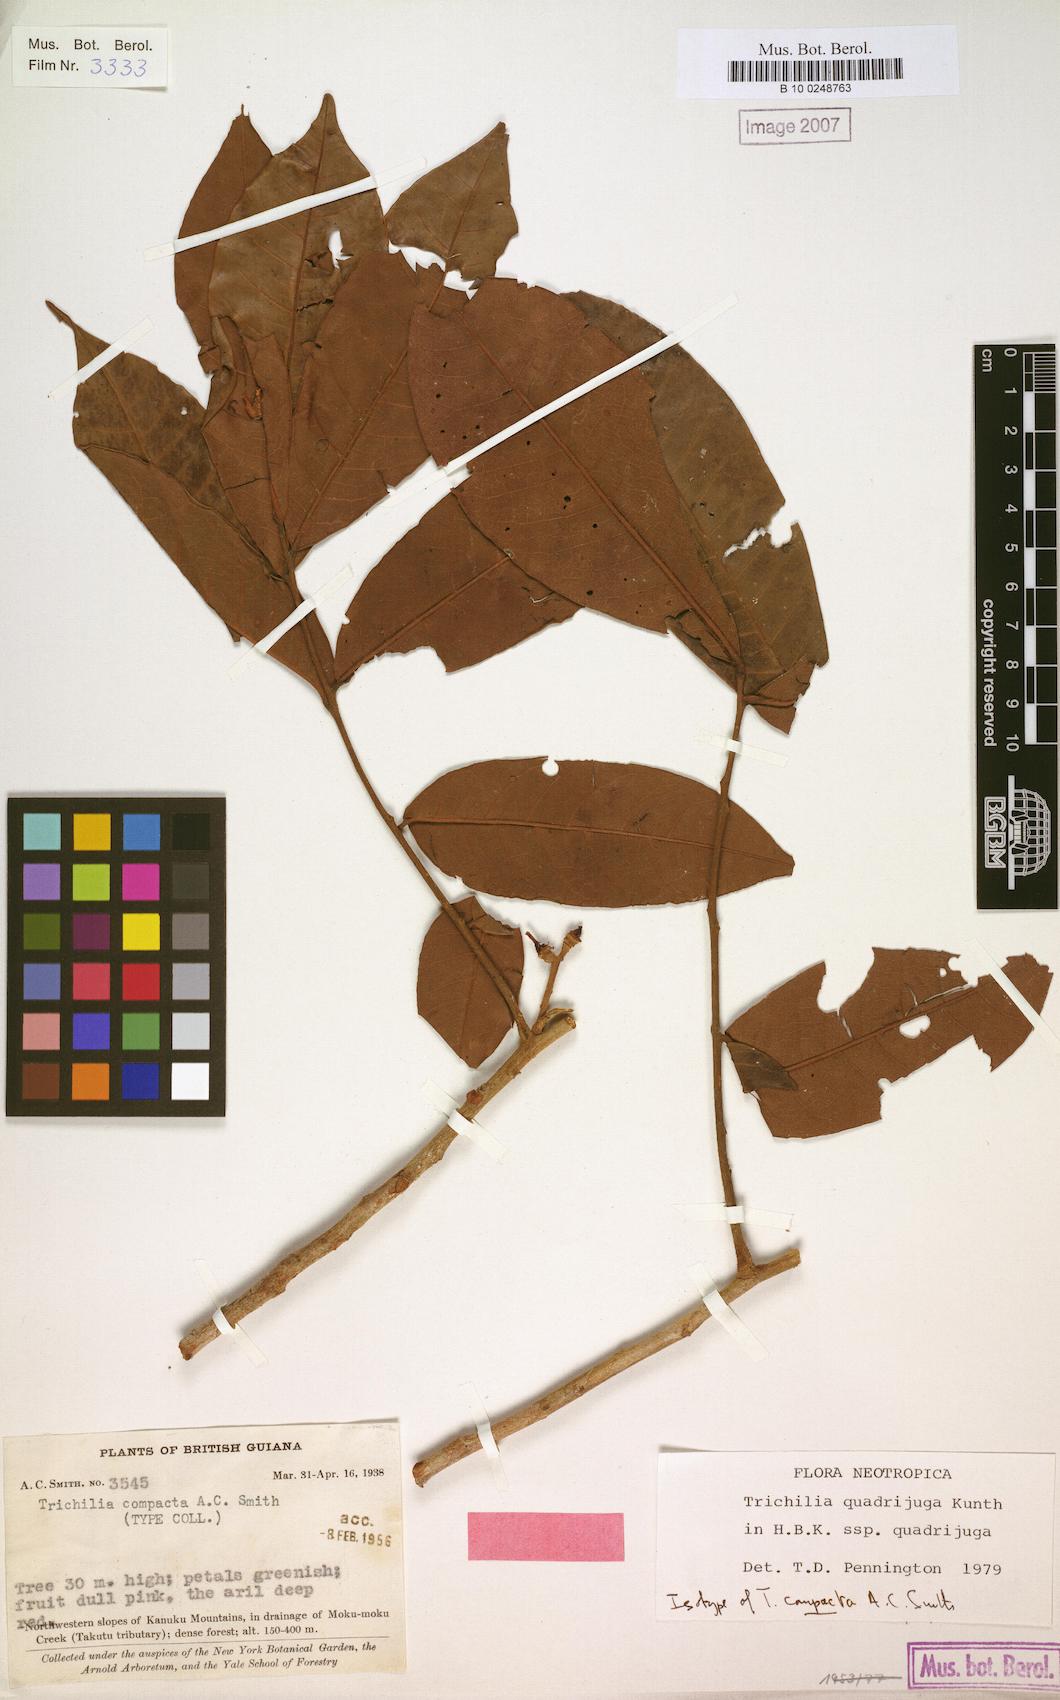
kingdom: Plantae
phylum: Tracheophyta
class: Magnoliopsida
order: Sapindales
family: Meliaceae
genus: Trichilia
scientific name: Trichilia quadrijuga
